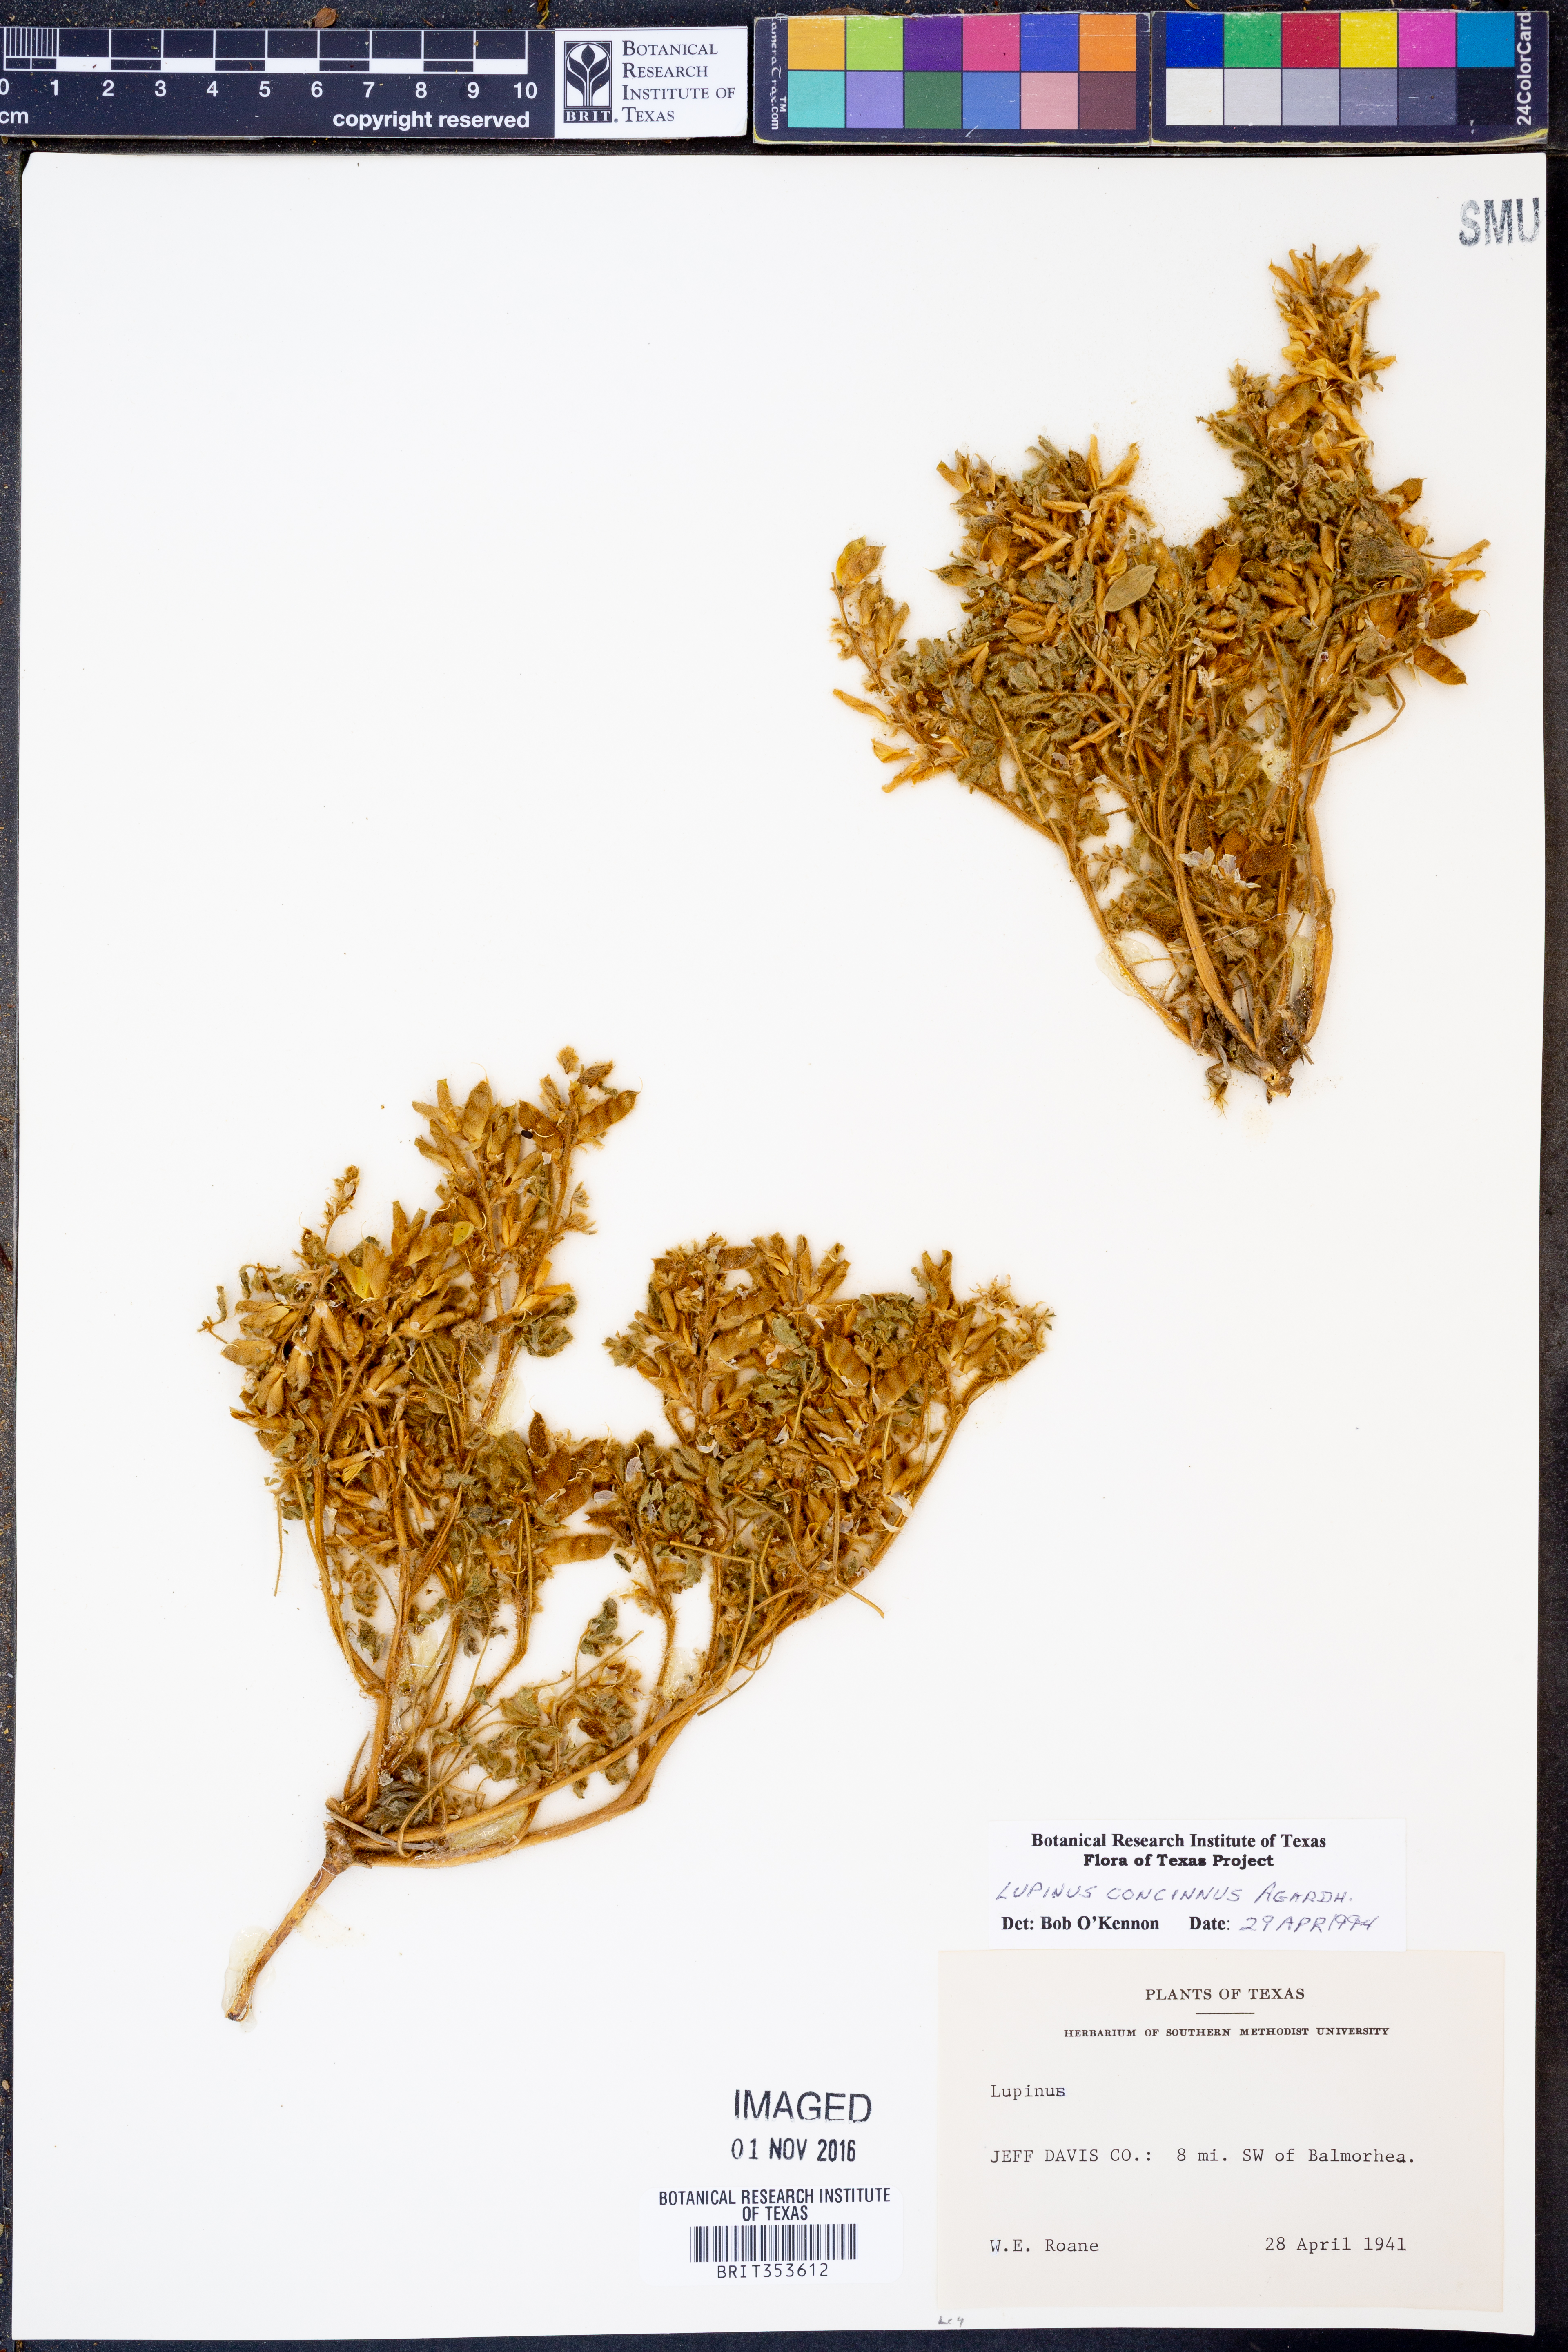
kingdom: Plantae
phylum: Tracheophyta
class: Magnoliopsida
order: Fabales
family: Fabaceae
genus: Lupinus
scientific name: Lupinus concinnus
